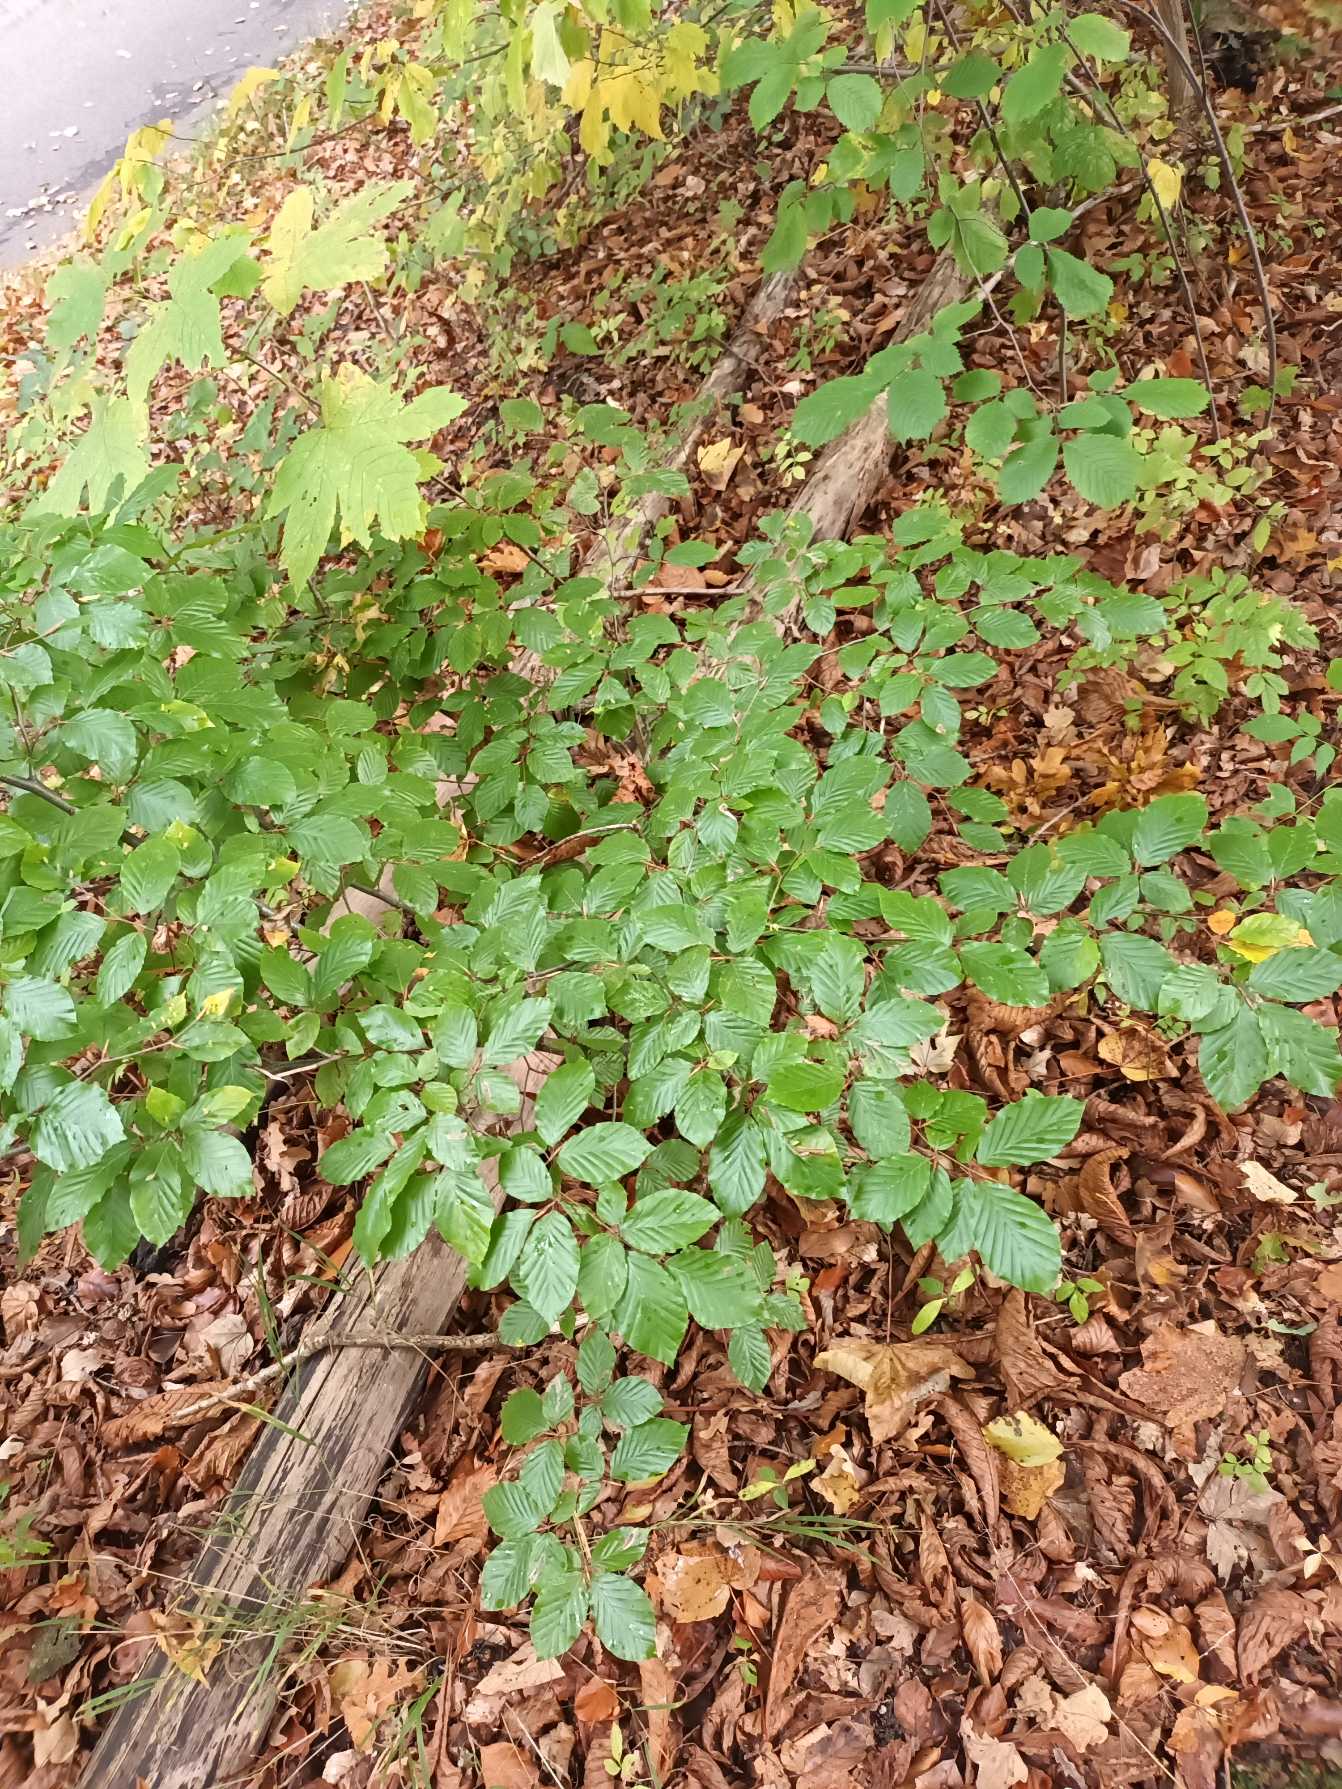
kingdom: Plantae
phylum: Tracheophyta
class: Magnoliopsida
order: Fagales
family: Fagaceae
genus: Fagus
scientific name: Fagus sylvatica
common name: Bøg
